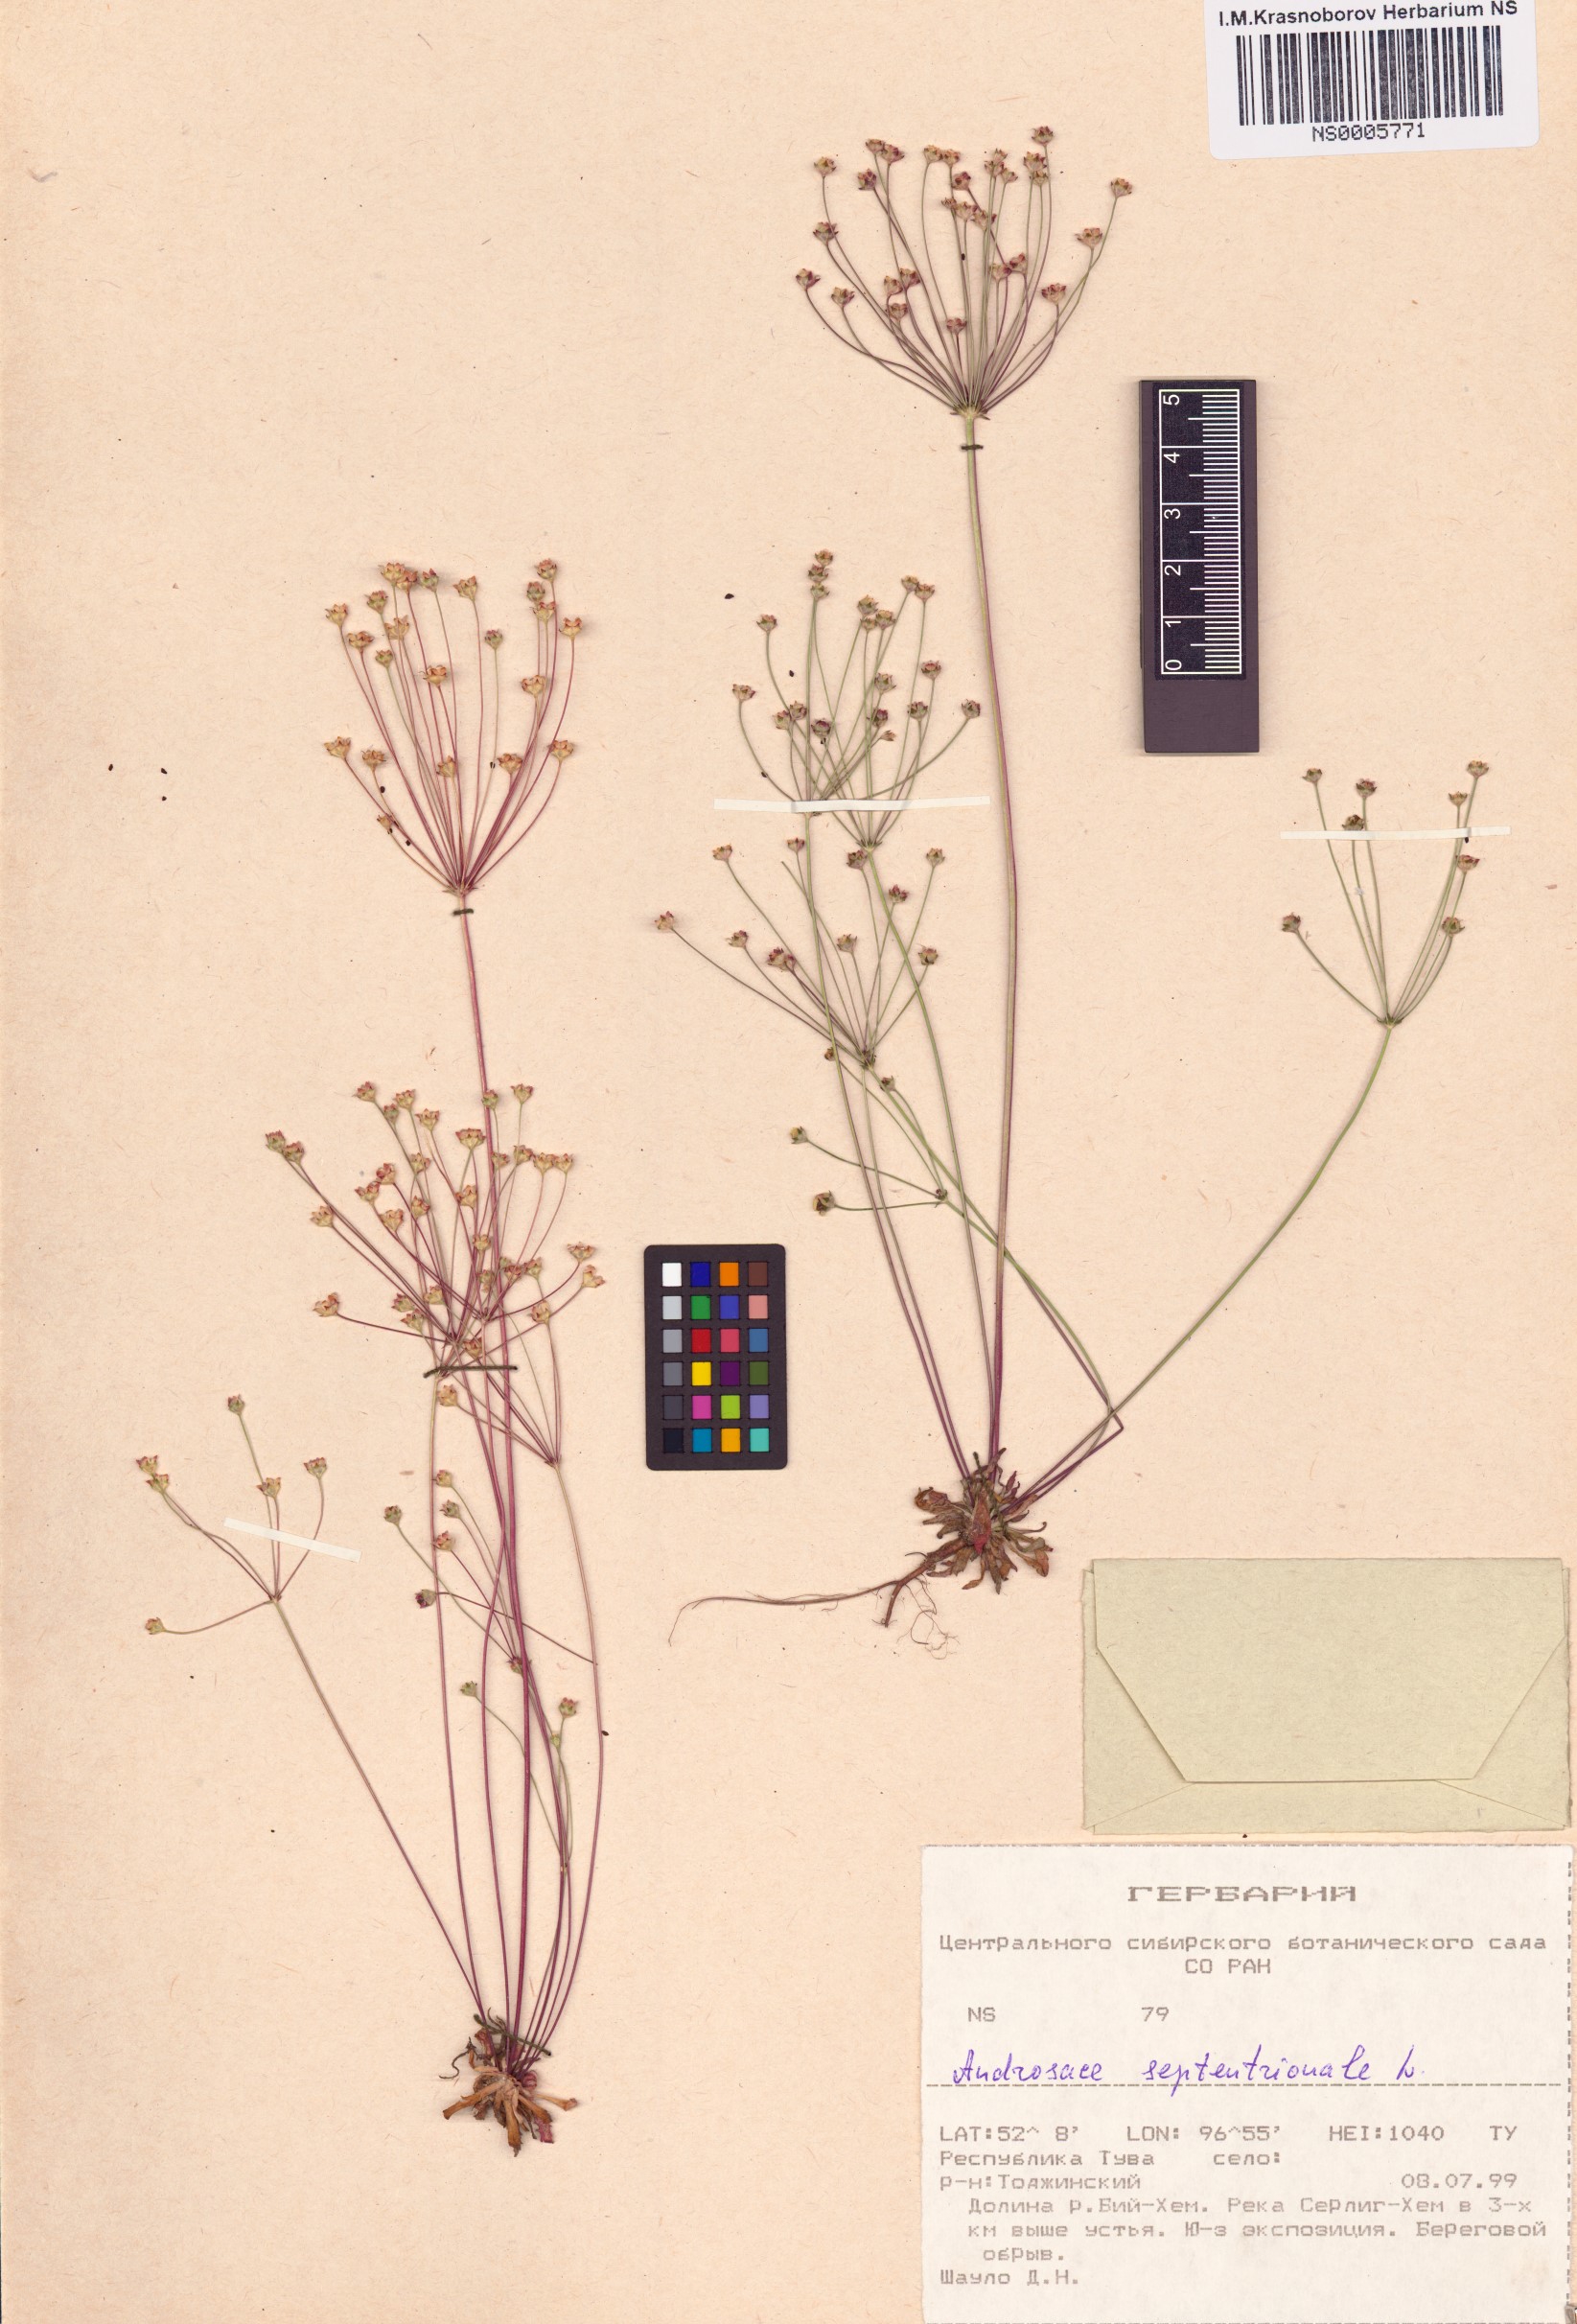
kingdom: Plantae
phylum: Tracheophyta
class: Magnoliopsida
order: Ericales
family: Primulaceae
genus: Androsace
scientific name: Androsace septentrionalis
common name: Hairy northern fairy-candelabra
